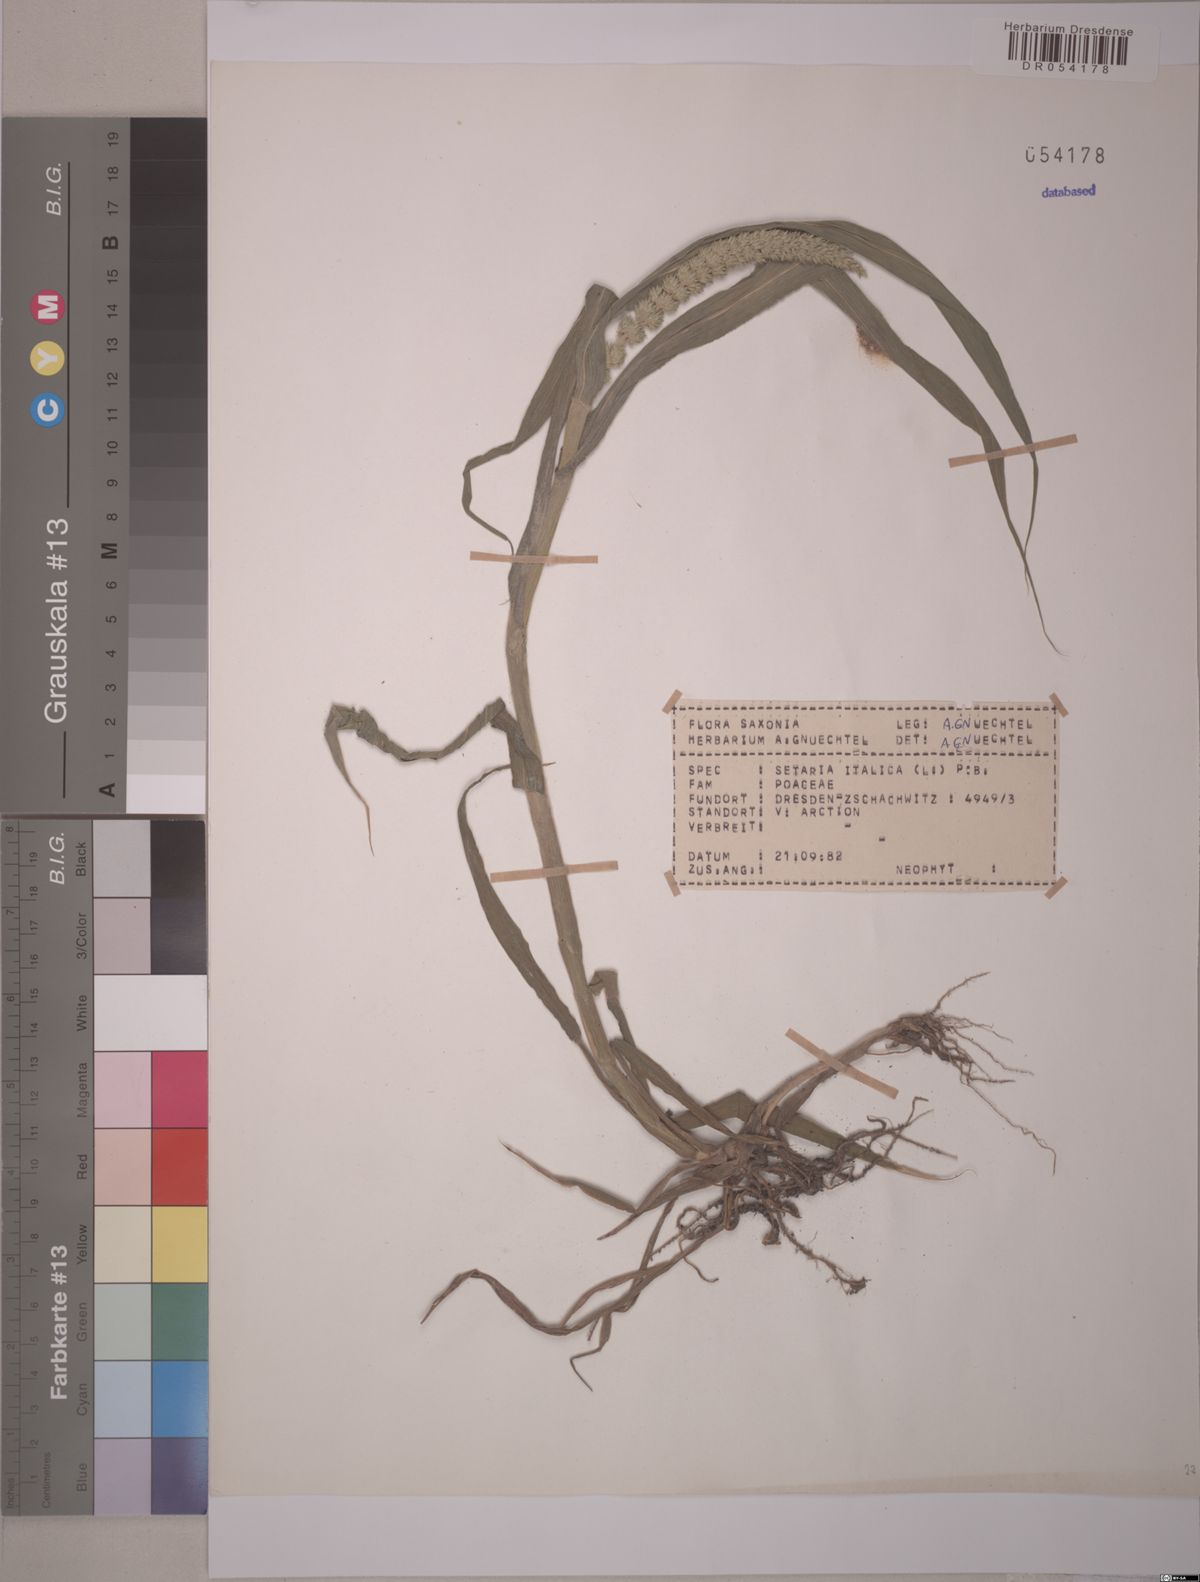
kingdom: Plantae
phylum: Tracheophyta
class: Liliopsida
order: Poales
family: Poaceae
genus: Setaria
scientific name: Setaria italica
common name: Foxtail bristle-grass
